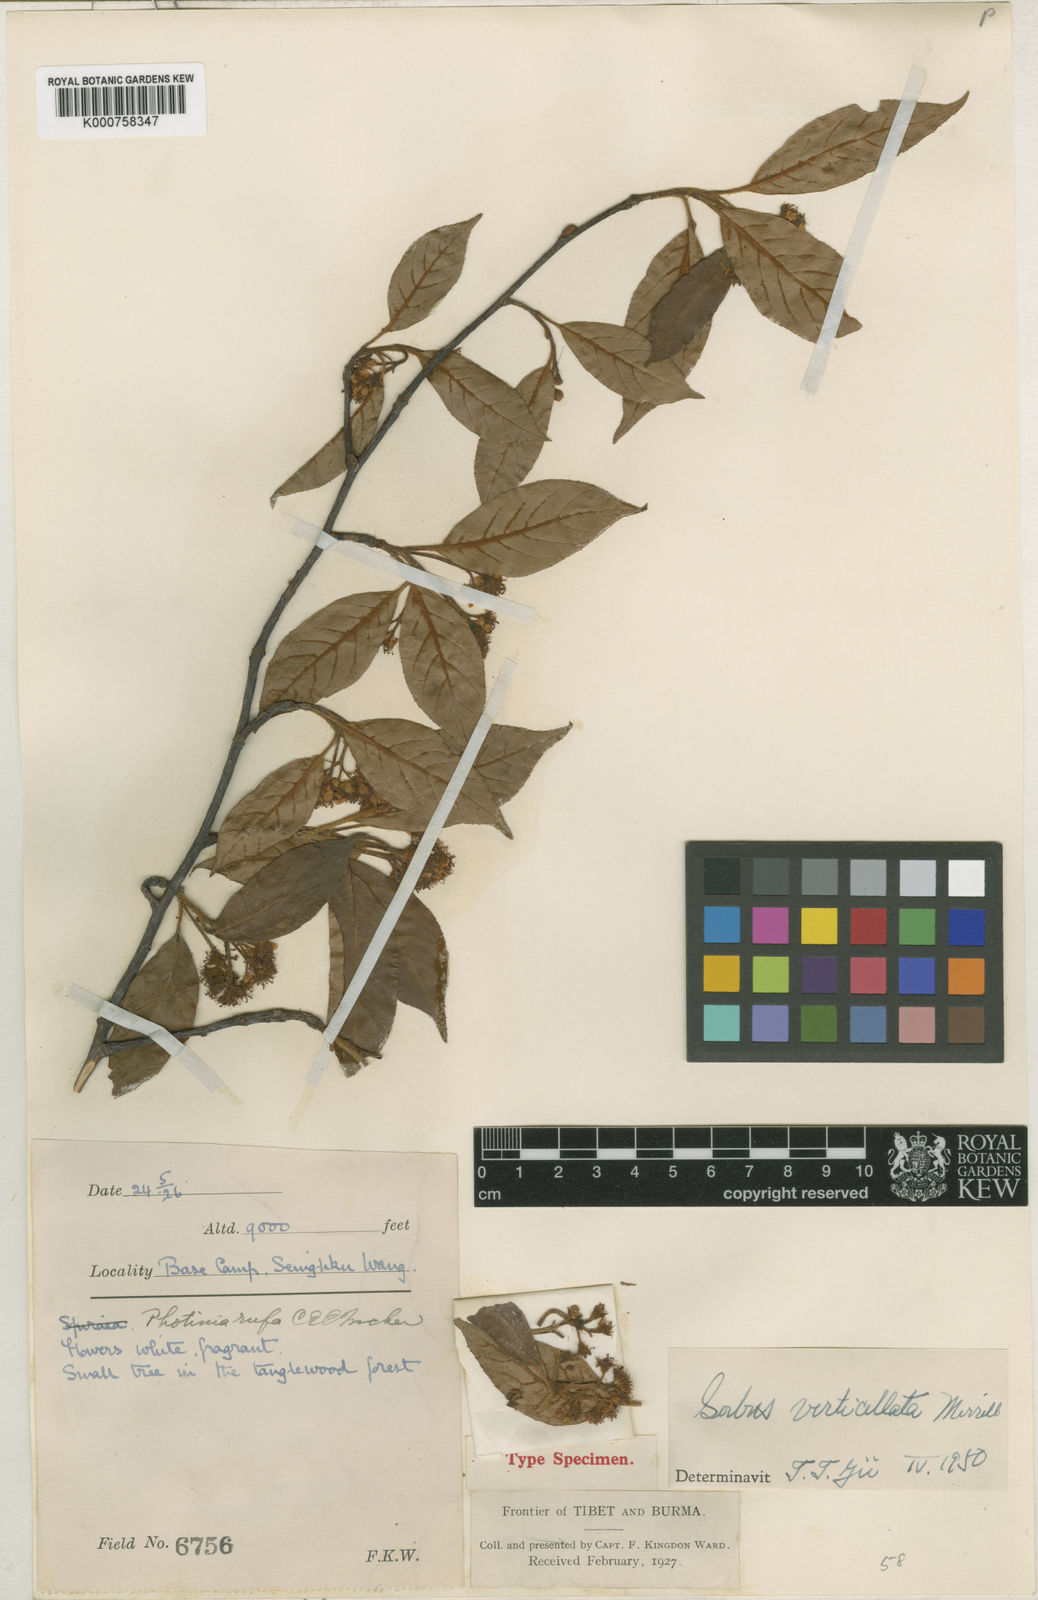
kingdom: Plantae
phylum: Tracheophyta
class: Magnoliopsida
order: Rosales
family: Rosaceae
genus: Sorbus
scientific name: Sorbus verticillata
